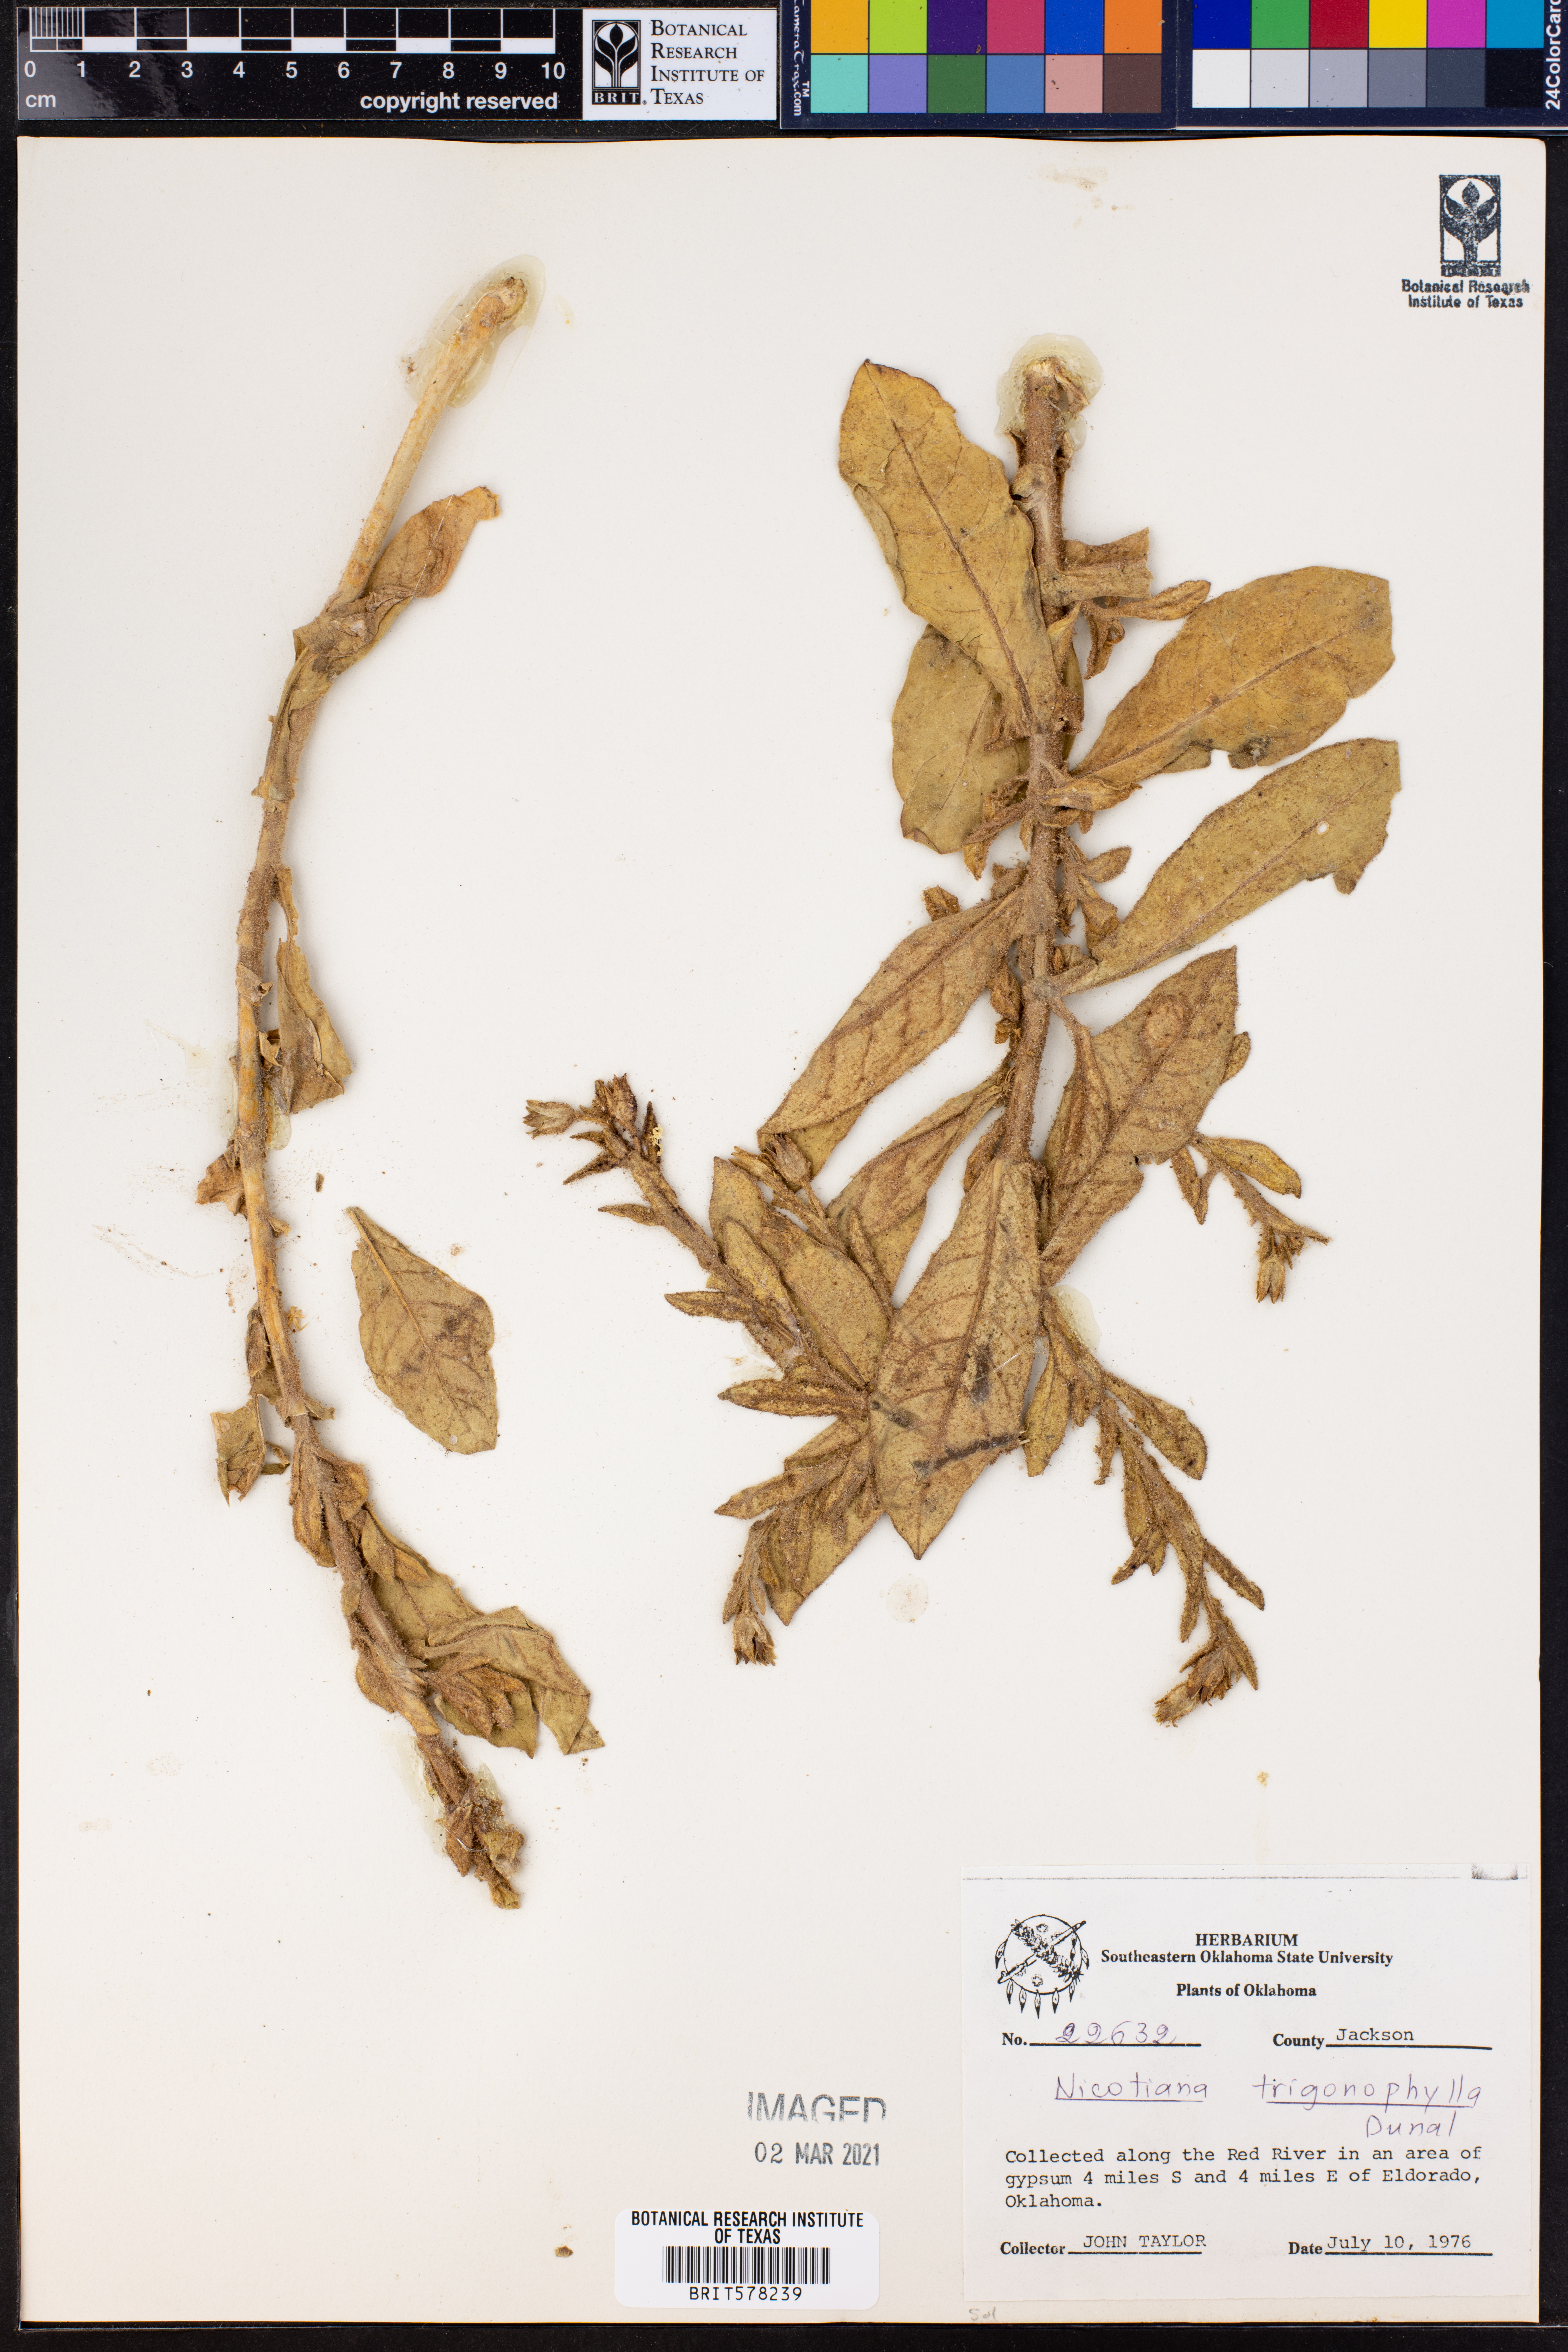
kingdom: Plantae
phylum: Tracheophyta
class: Magnoliopsida
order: Solanales
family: Solanaceae
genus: Nicotiana
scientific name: Nicotiana obtusifolia
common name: Desert tobacco
